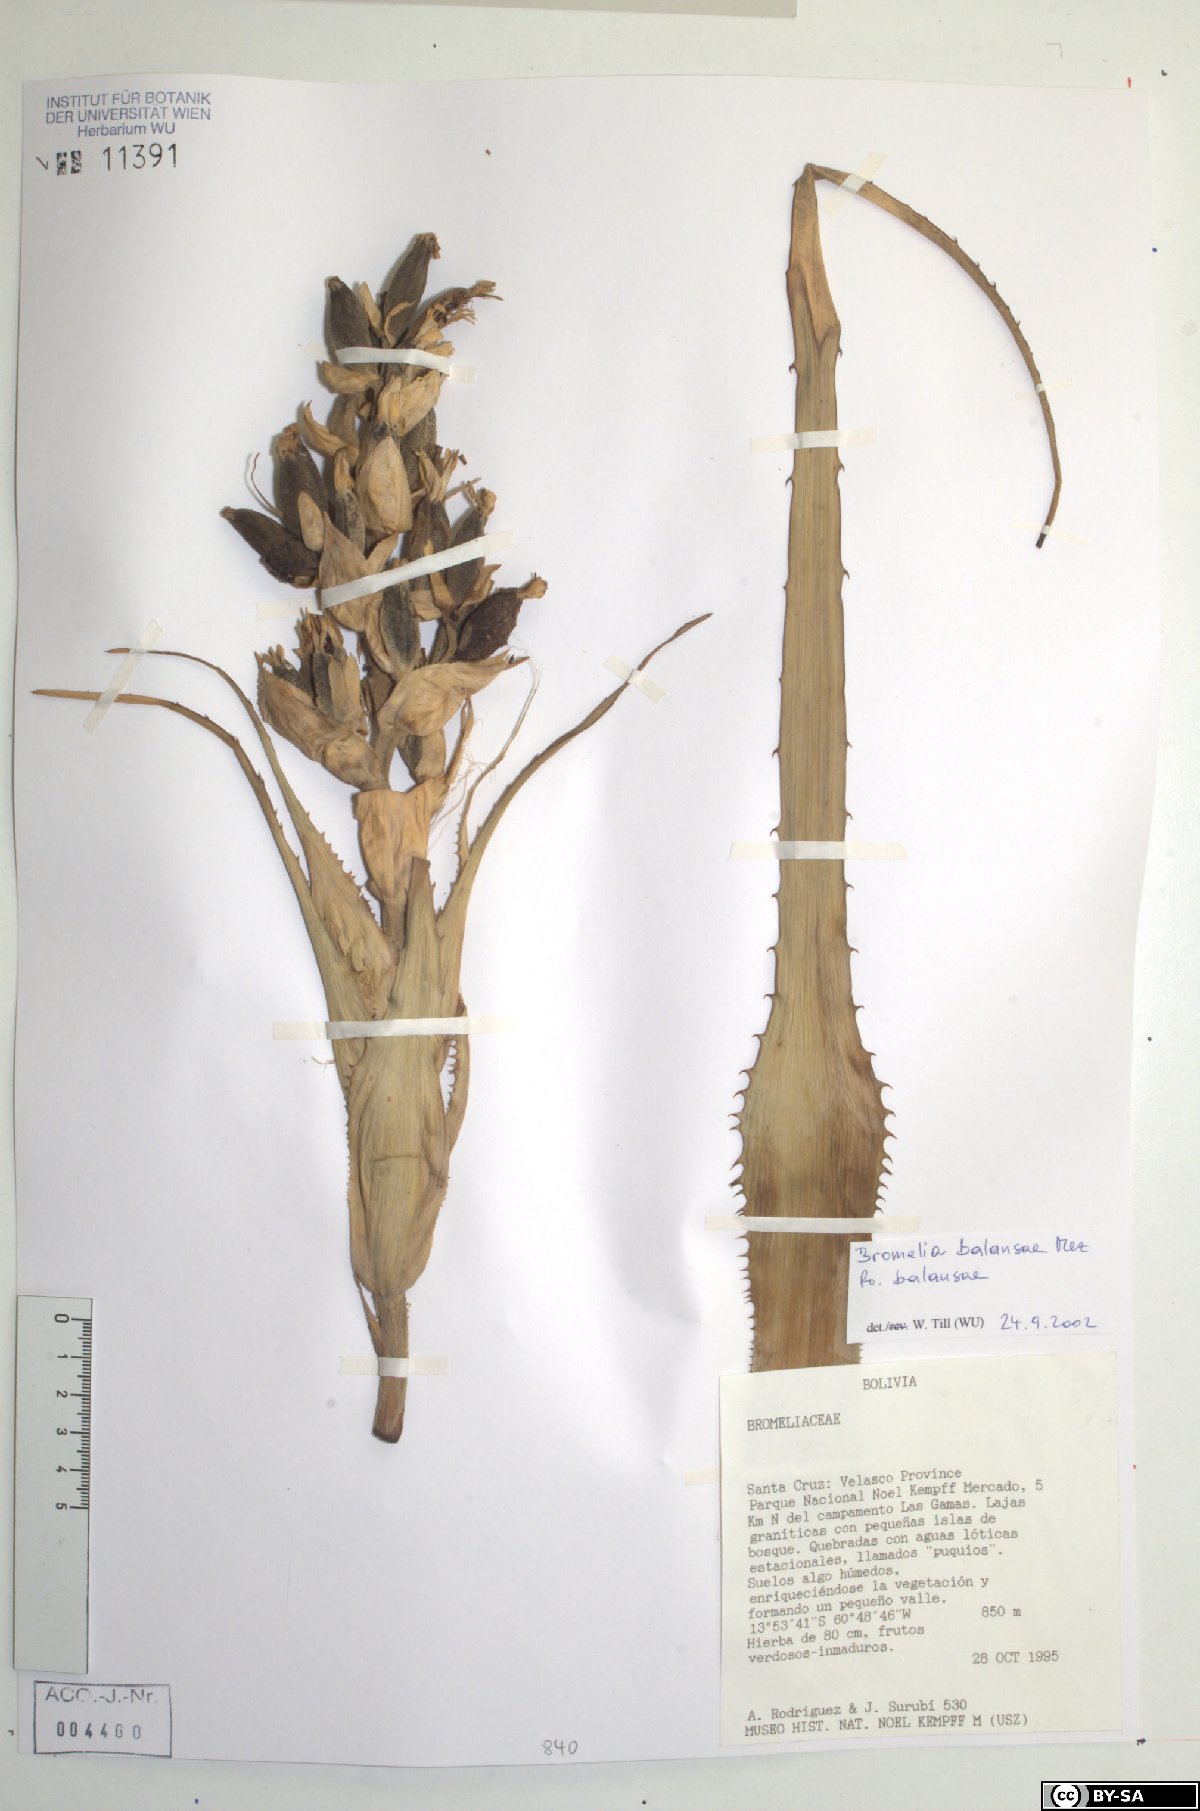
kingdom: Plantae
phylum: Tracheophyta
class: Liliopsida
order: Poales
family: Bromeliaceae
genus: Bromelia
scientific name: Bromelia balansae
